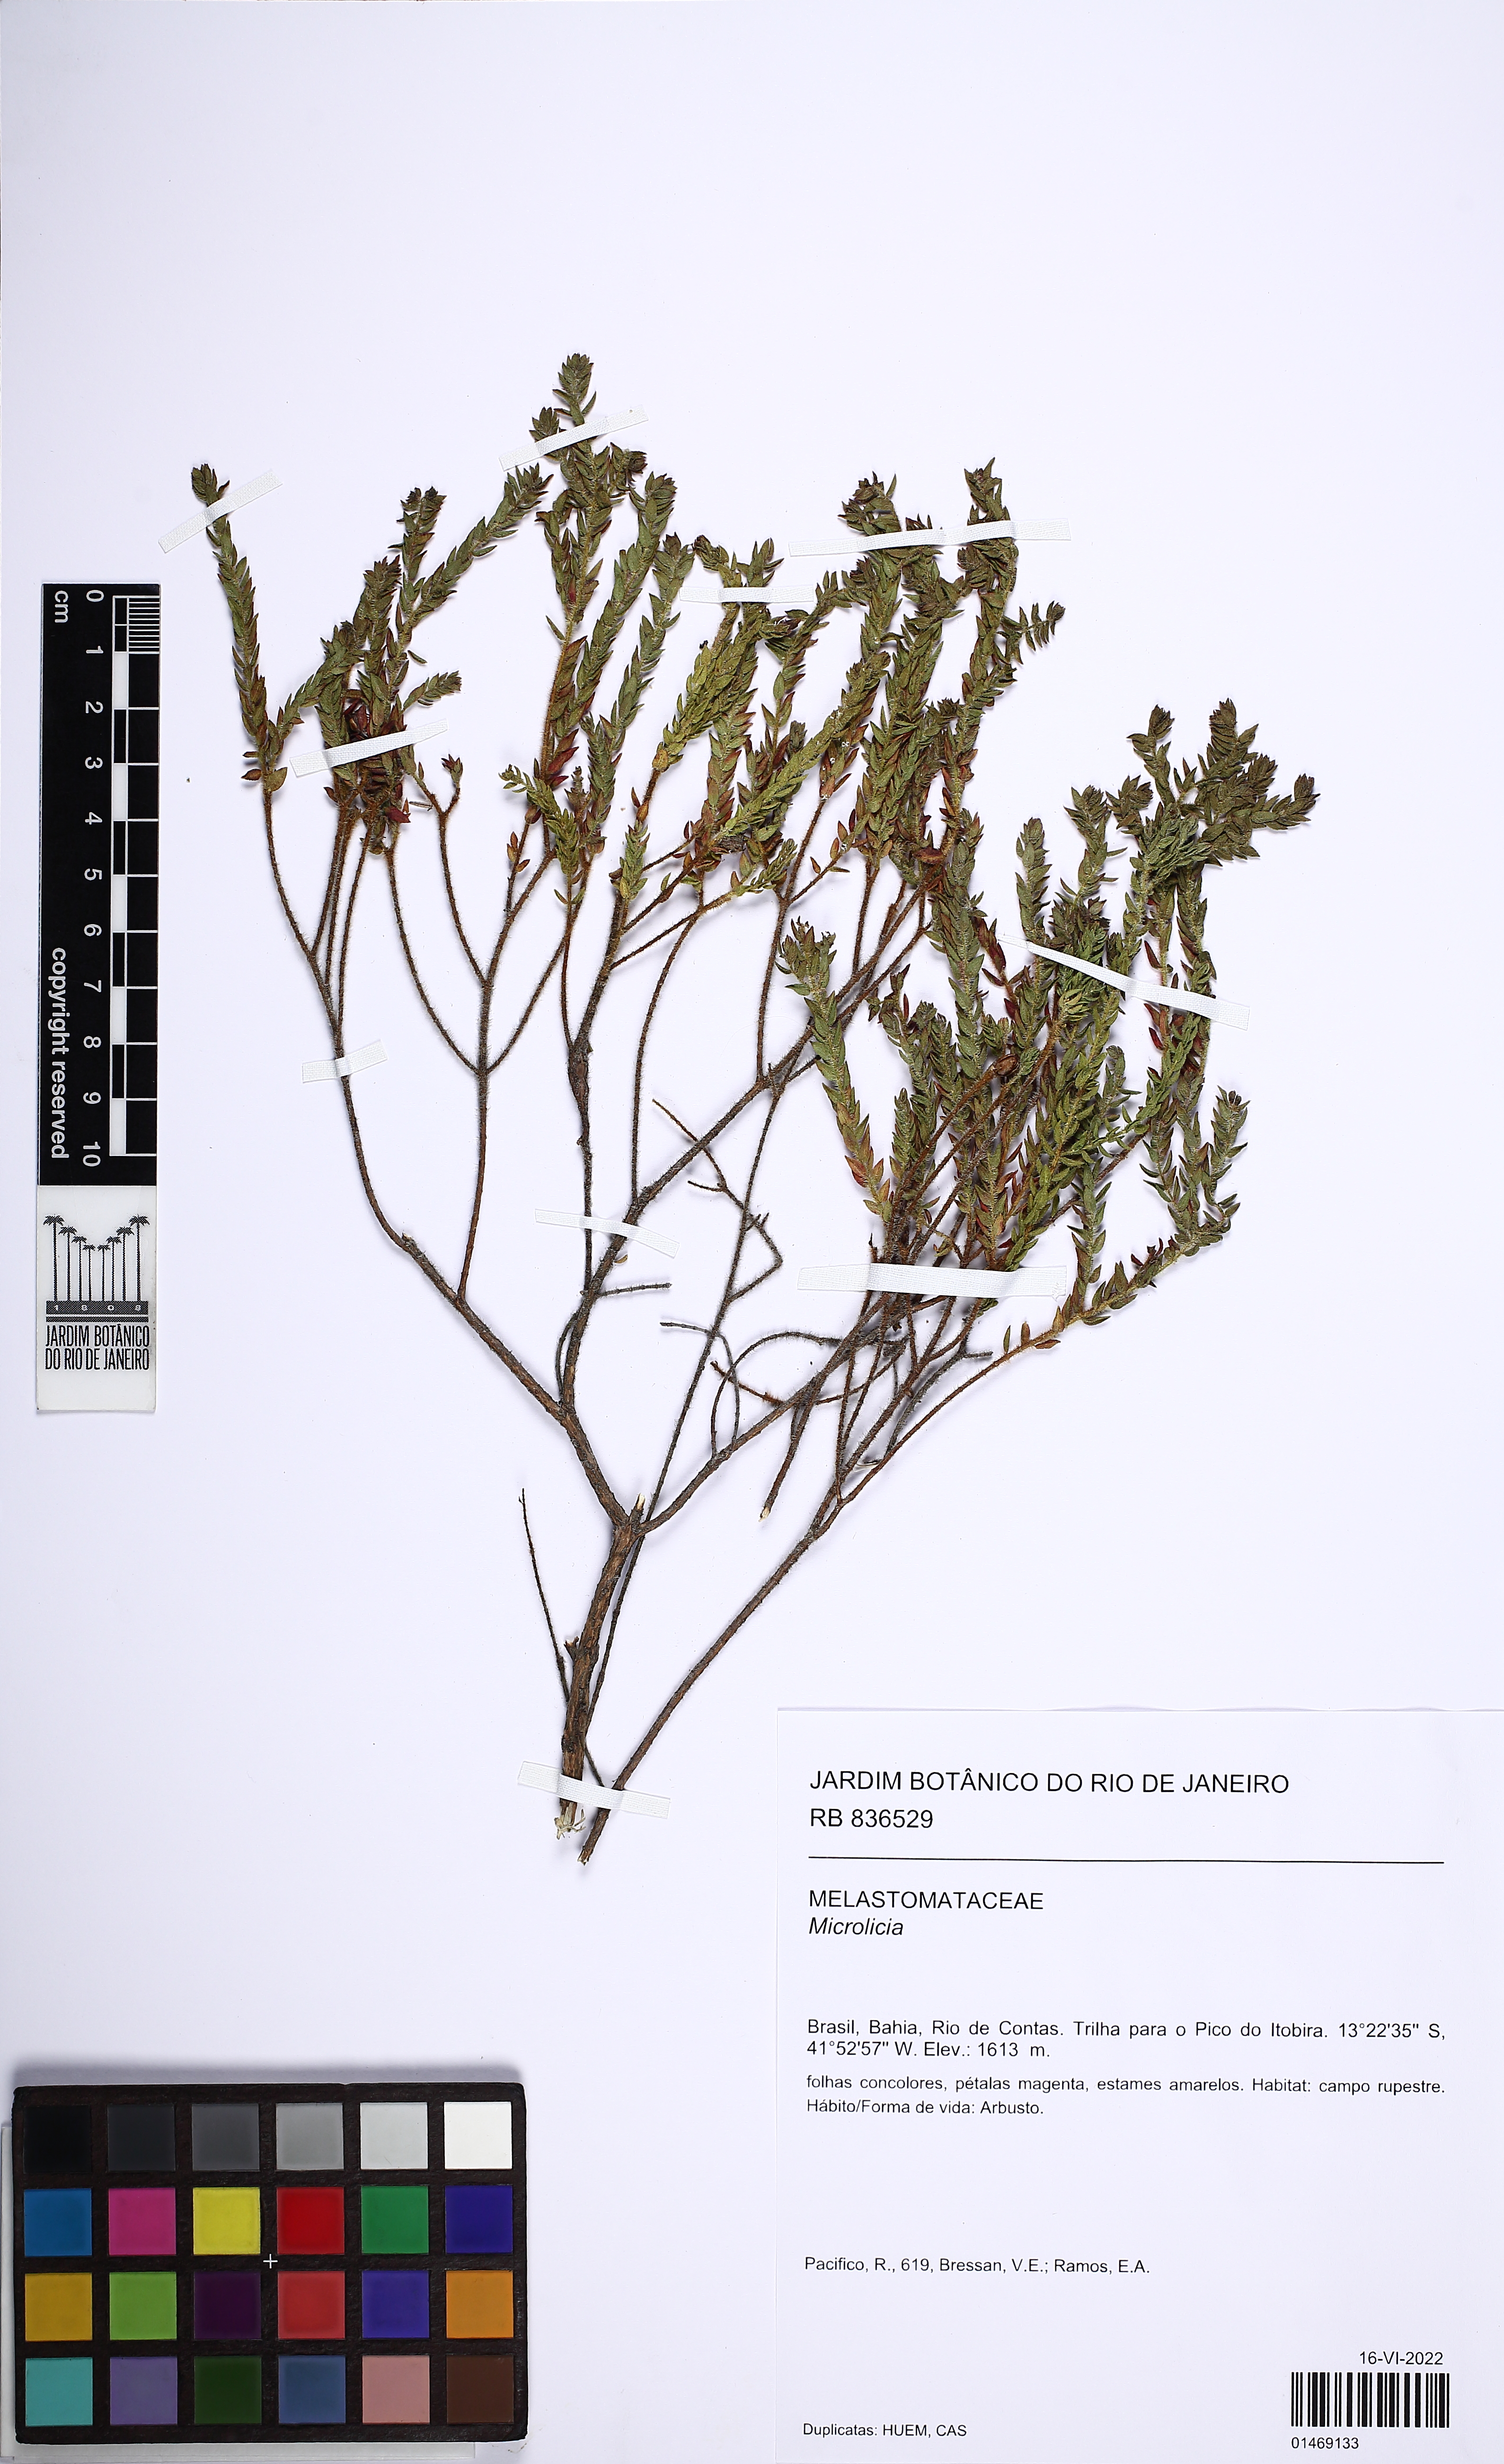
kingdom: Plantae
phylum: Tracheophyta
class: Magnoliopsida
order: Myrtales
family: Melastomataceae
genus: Microlicia
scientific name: Microlicia
